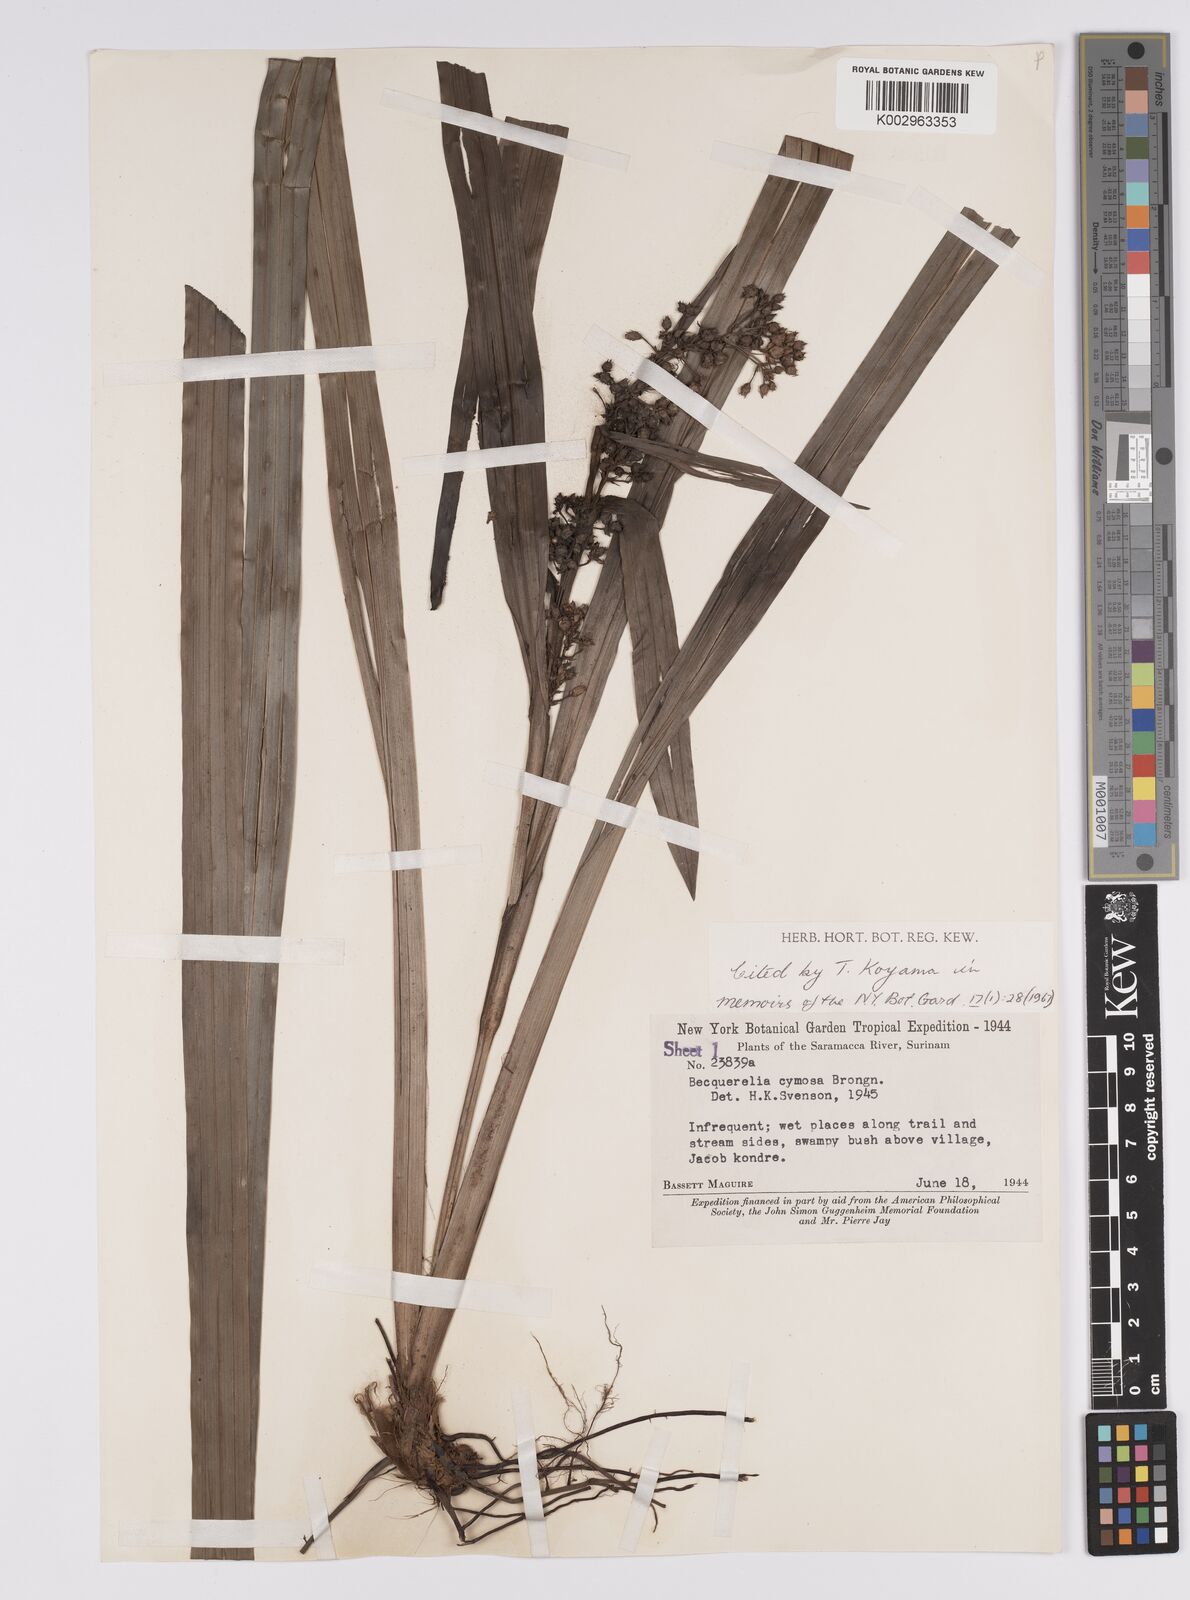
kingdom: Plantae
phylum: Tracheophyta
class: Liliopsida
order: Poales
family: Cyperaceae
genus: Becquerelia
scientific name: Becquerelia cymosa
